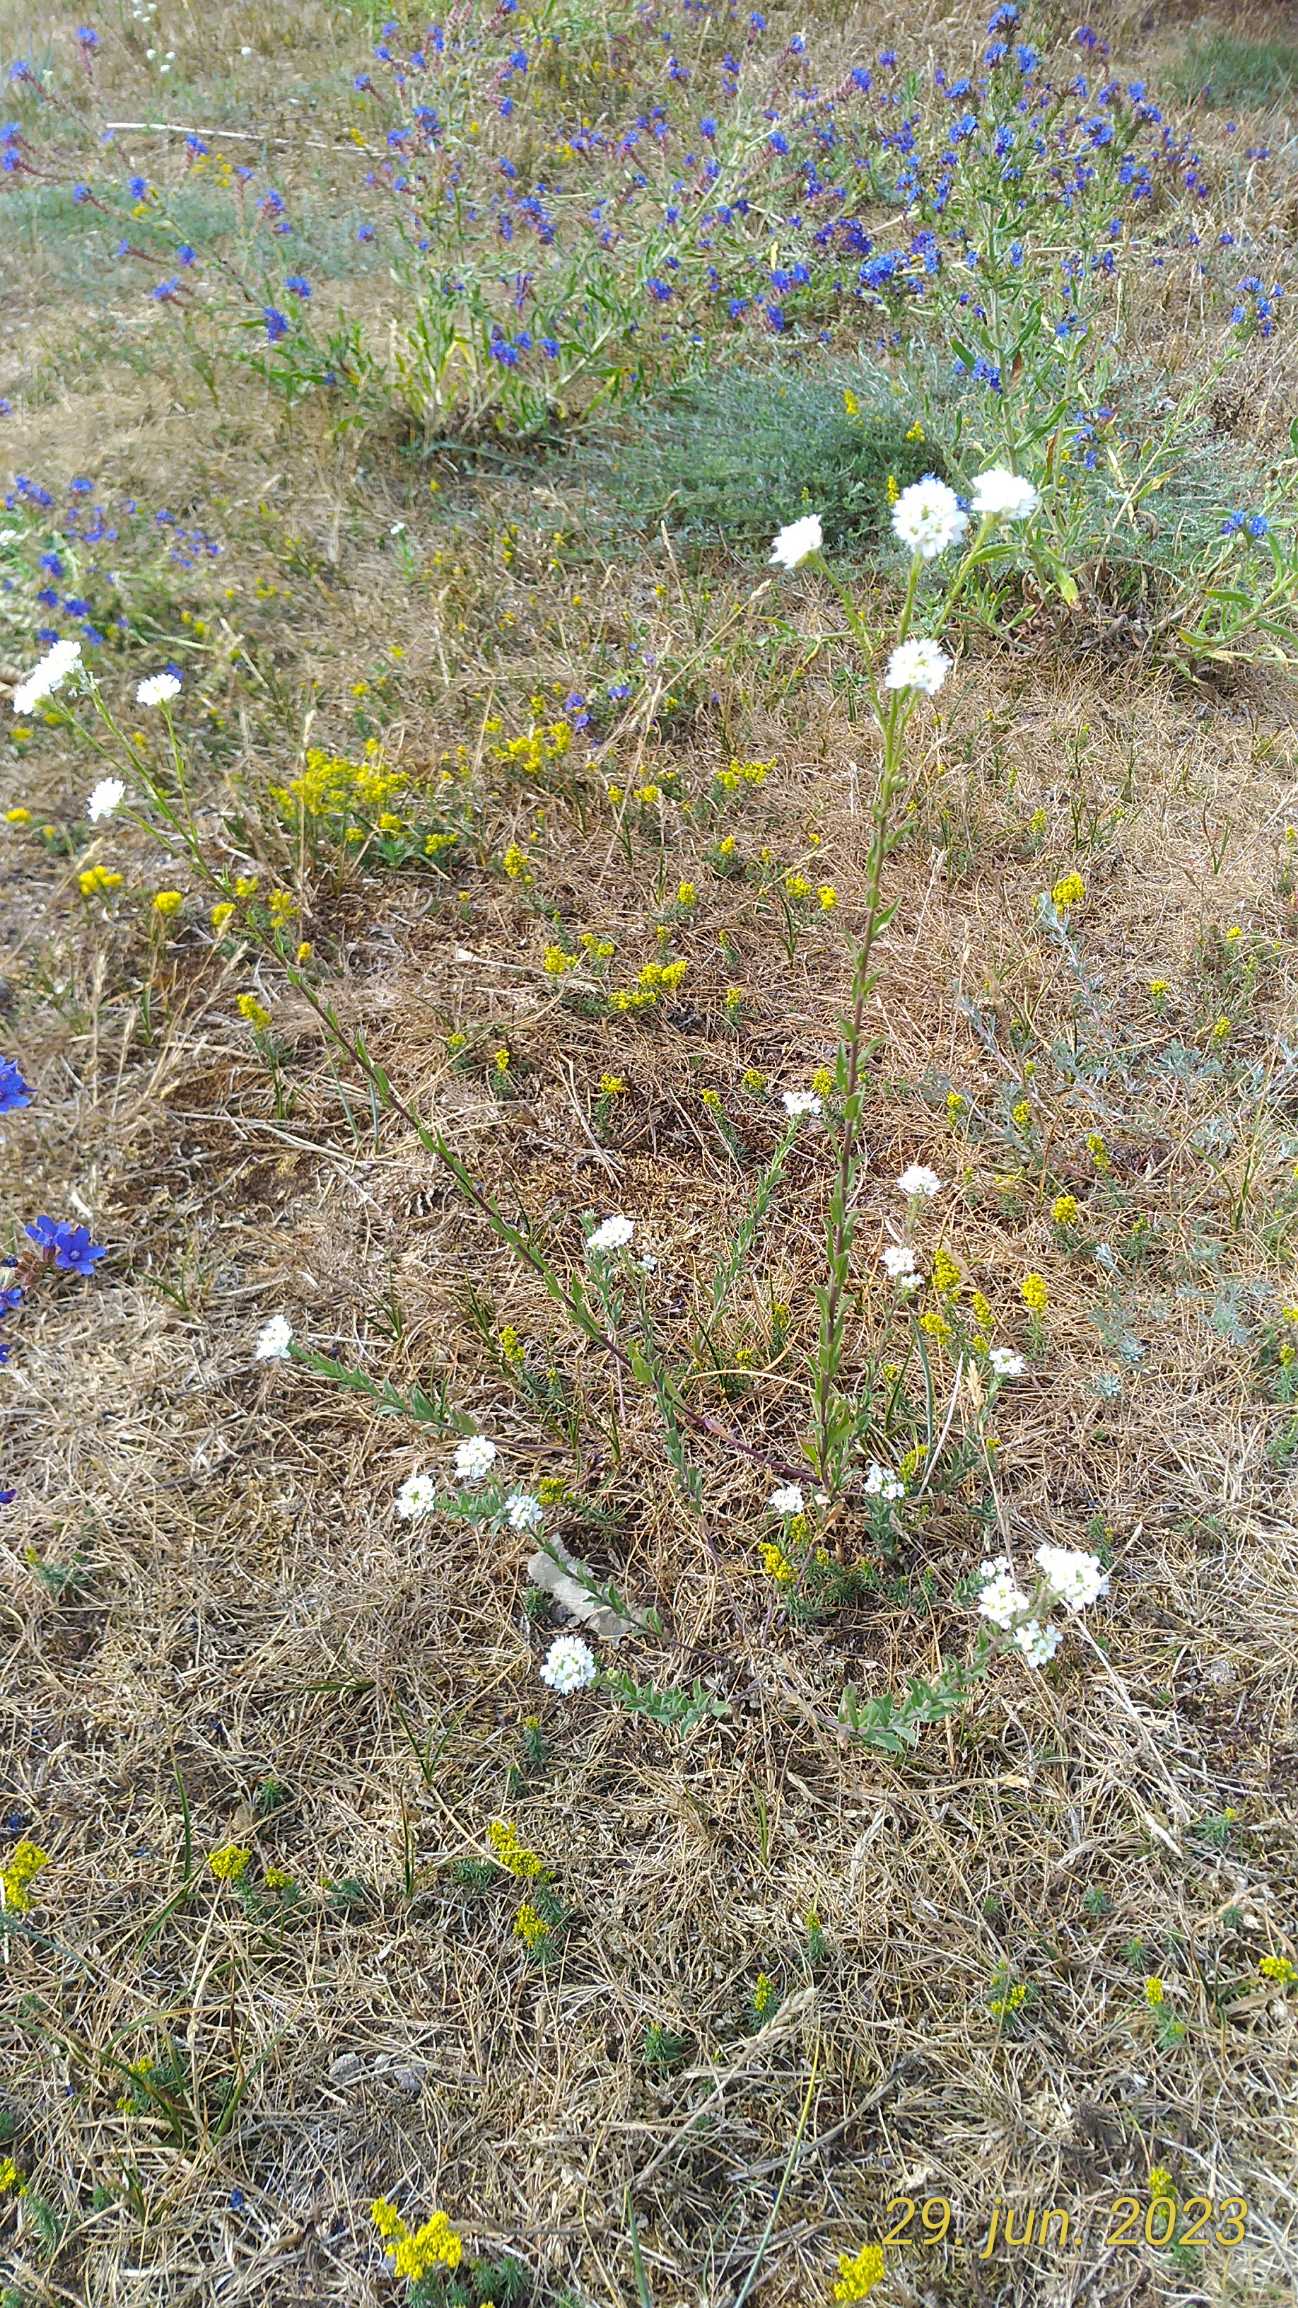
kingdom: Plantae
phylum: Tracheophyta
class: Magnoliopsida
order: Brassicales
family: Brassicaceae
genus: Berteroa
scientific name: Berteroa incana
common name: Kløvplade
